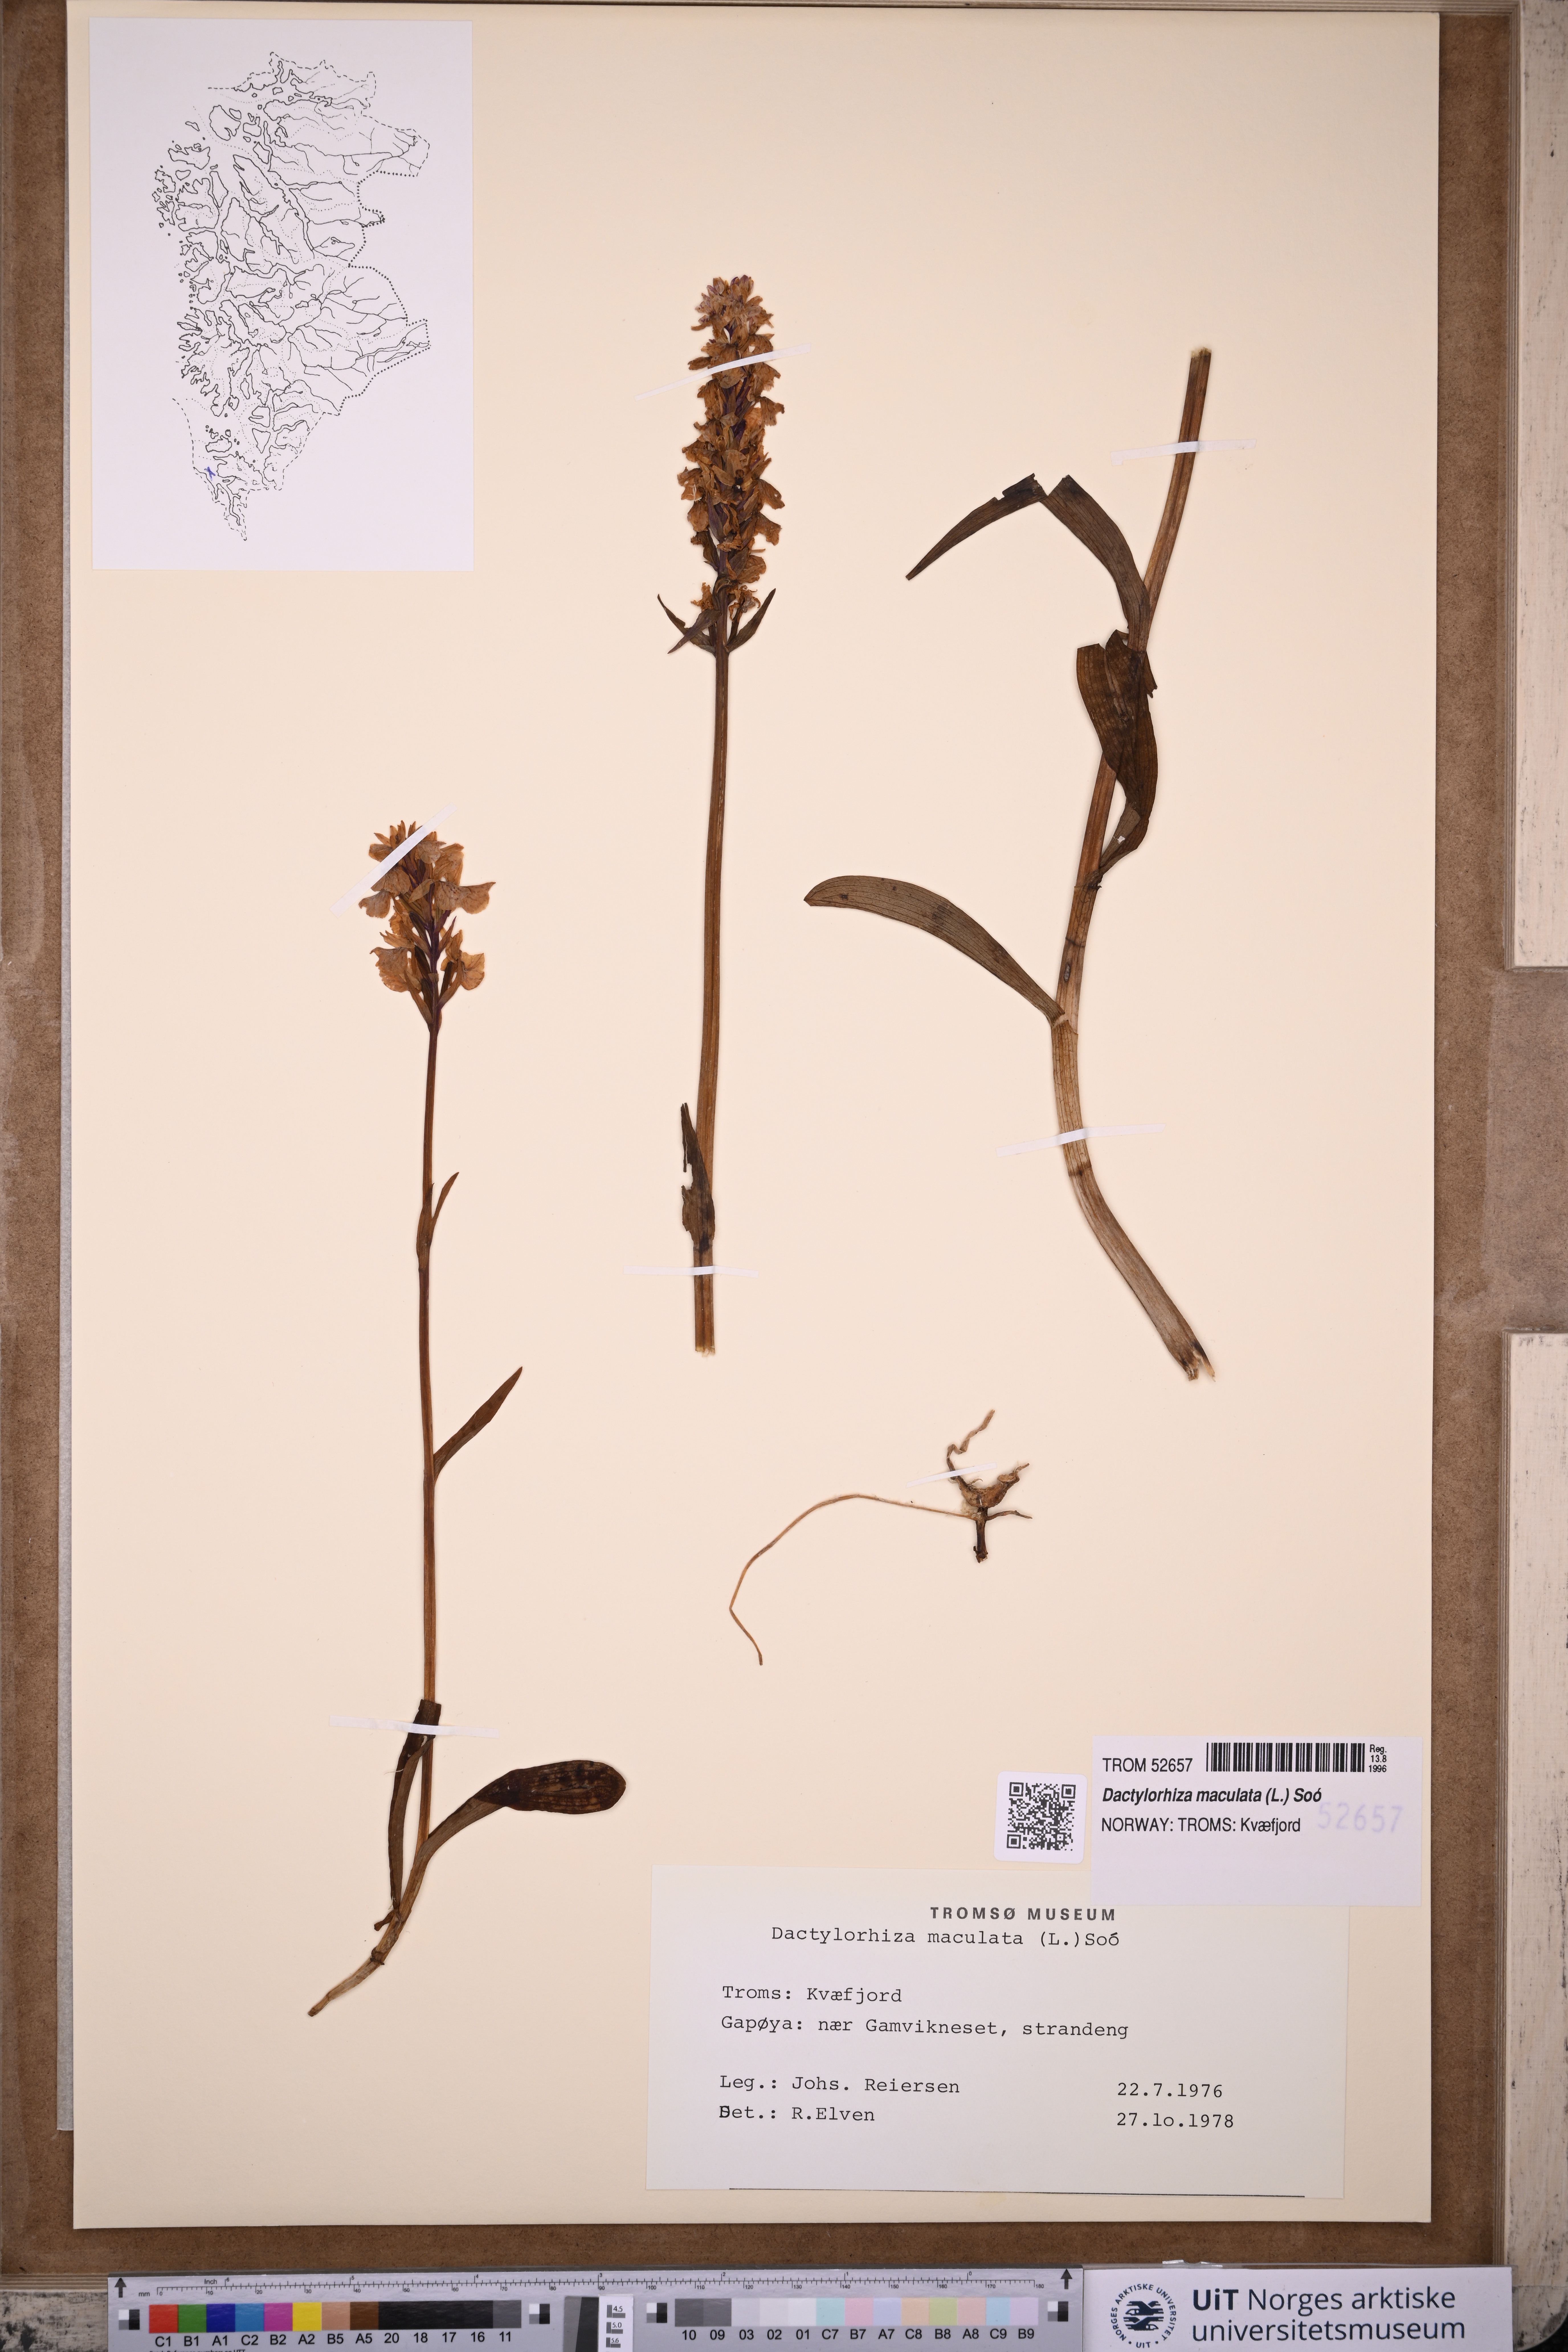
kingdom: Plantae
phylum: Tracheophyta
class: Liliopsida
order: Asparagales
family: Orchidaceae
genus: Dactylorhiza
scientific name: Dactylorhiza maculata
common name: Heath spotted-orchid
